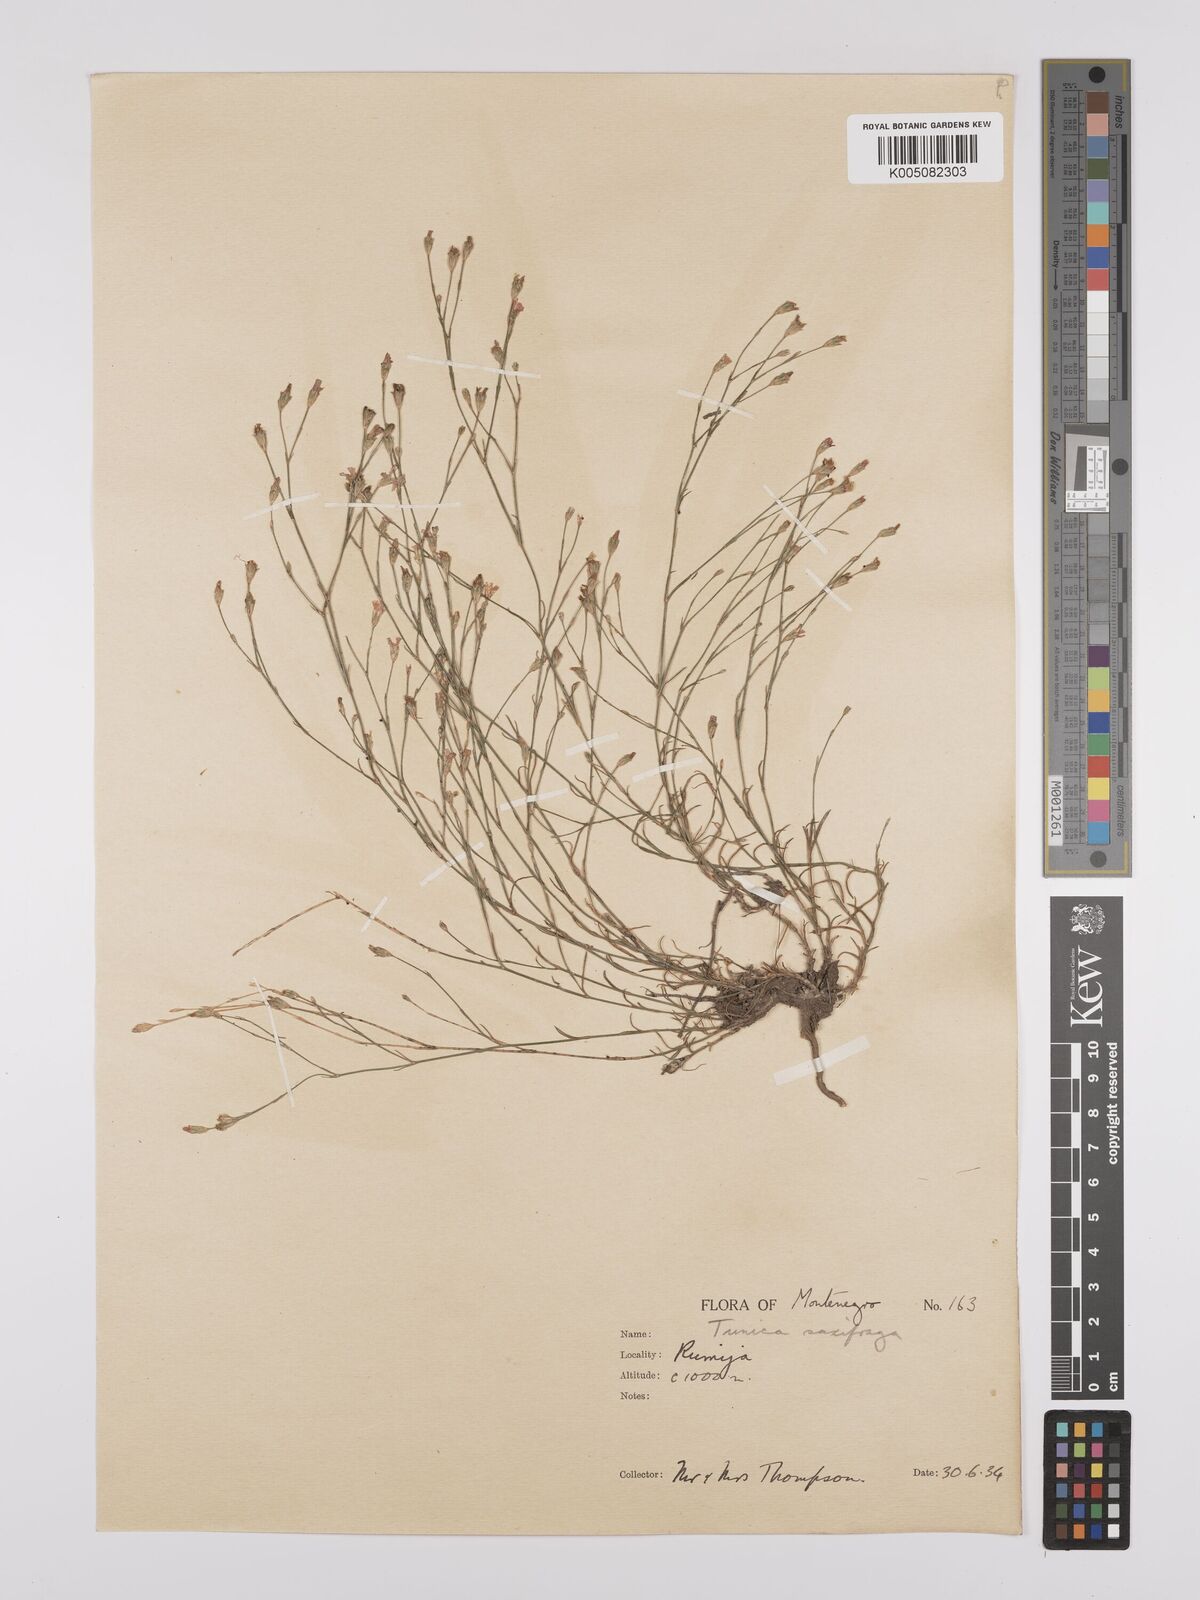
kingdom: Plantae
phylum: Tracheophyta
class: Magnoliopsida
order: Caryophyllales
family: Caryophyllaceae
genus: Petrorhagia
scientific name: Petrorhagia saxifraga
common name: Tunicflower
